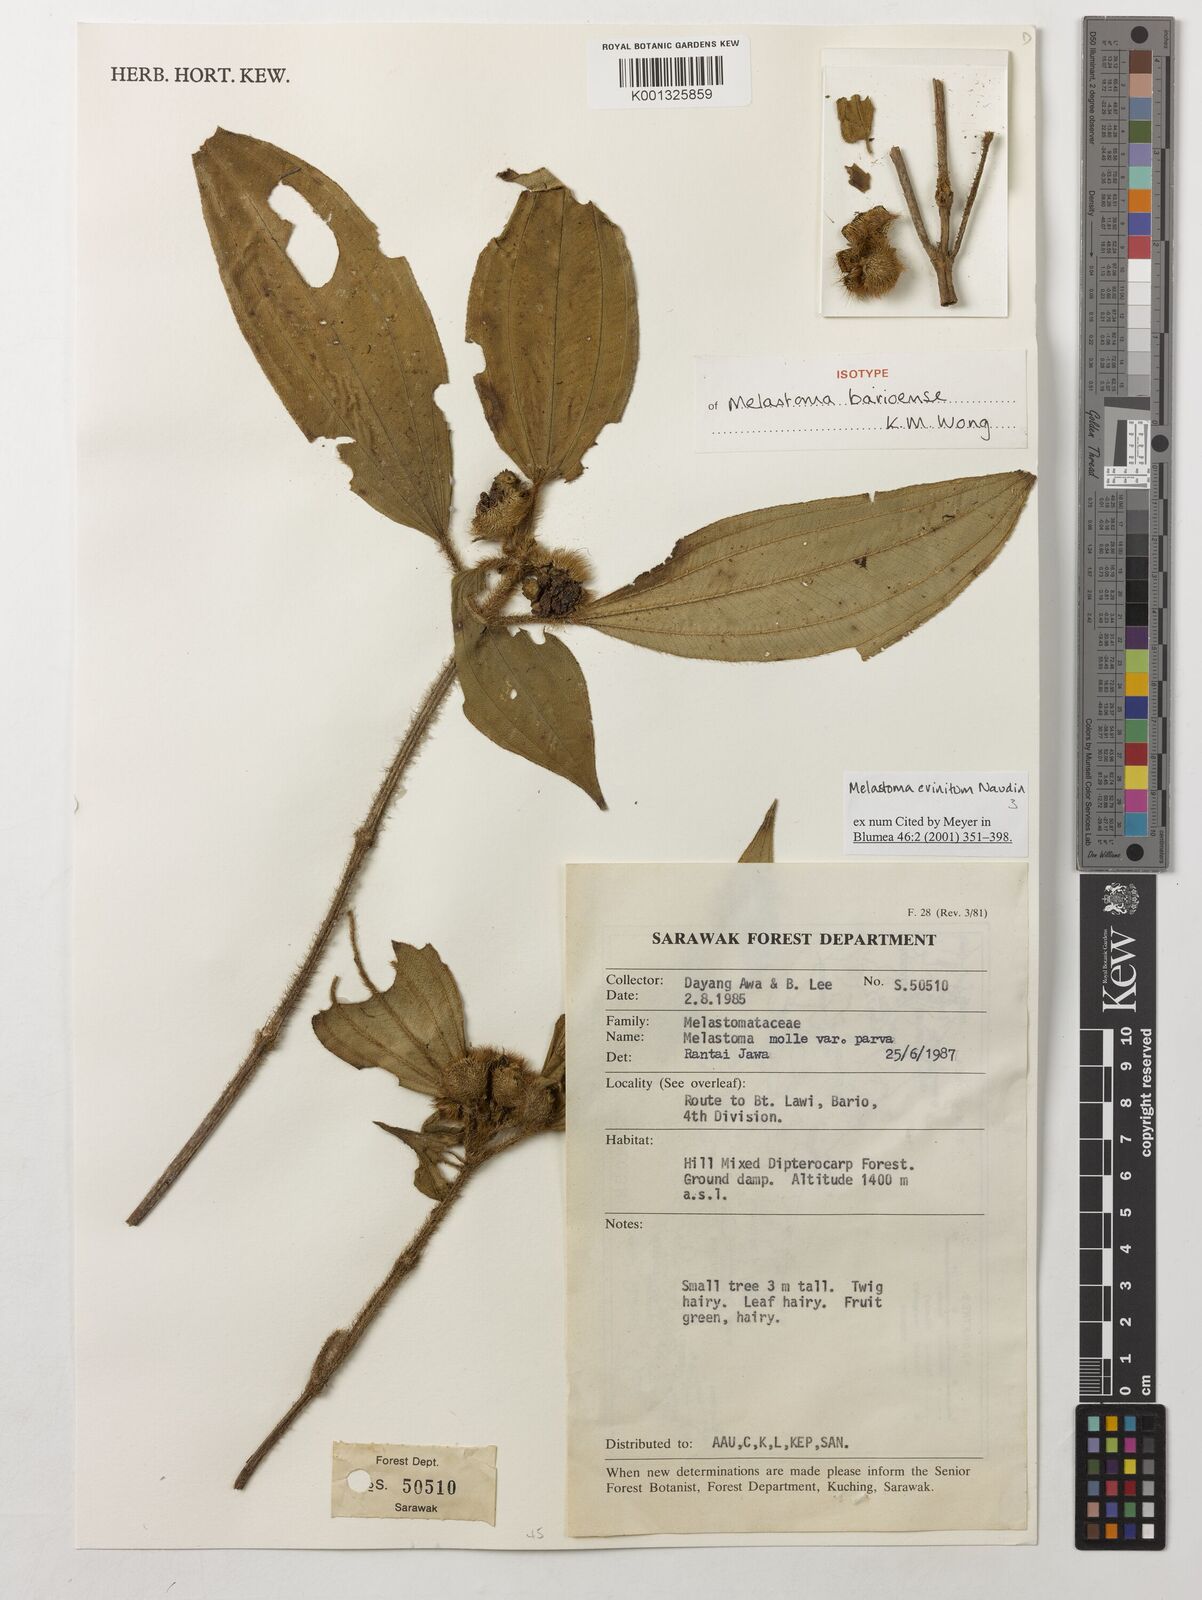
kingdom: Plantae
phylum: Tracheophyta
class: Magnoliopsida
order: Myrtales
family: Melastomataceae
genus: Melastoma
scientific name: Melastoma barioense
